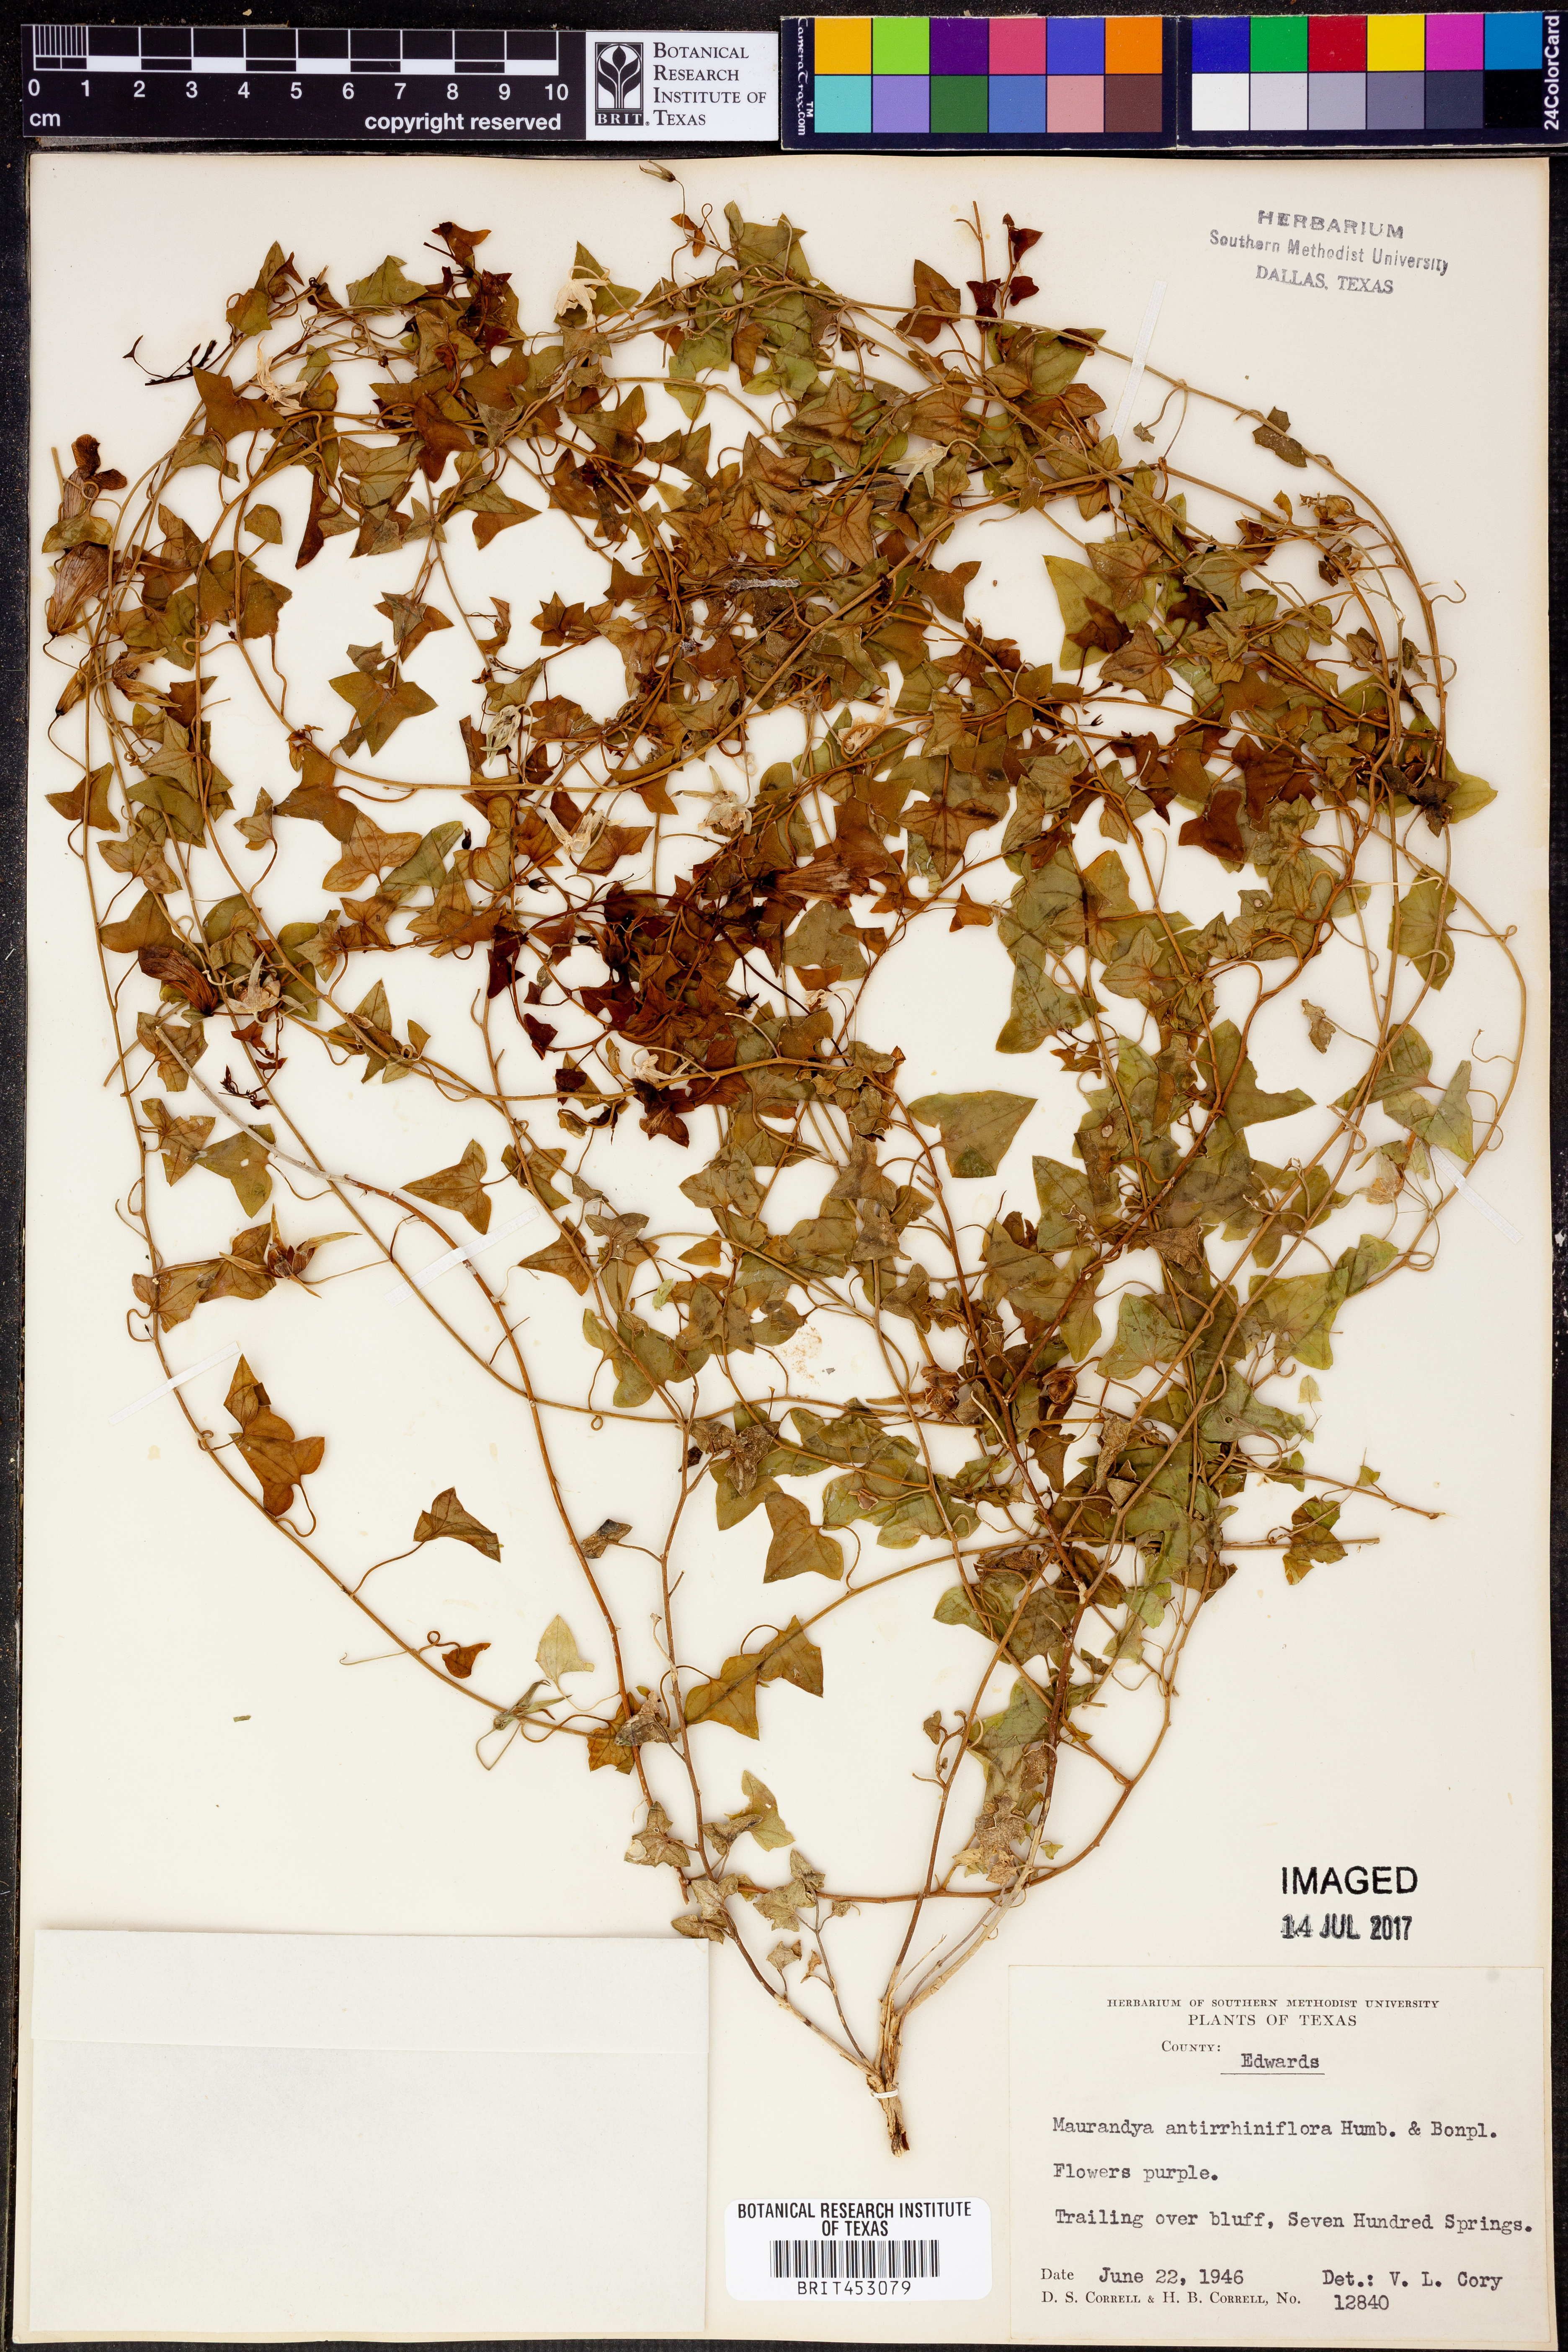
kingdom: Plantae
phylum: Tracheophyta
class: Magnoliopsida
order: Lamiales
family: Plantaginaceae
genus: Maurandella
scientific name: Maurandella antirrhiniflora
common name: Violet twining-snapdragon
